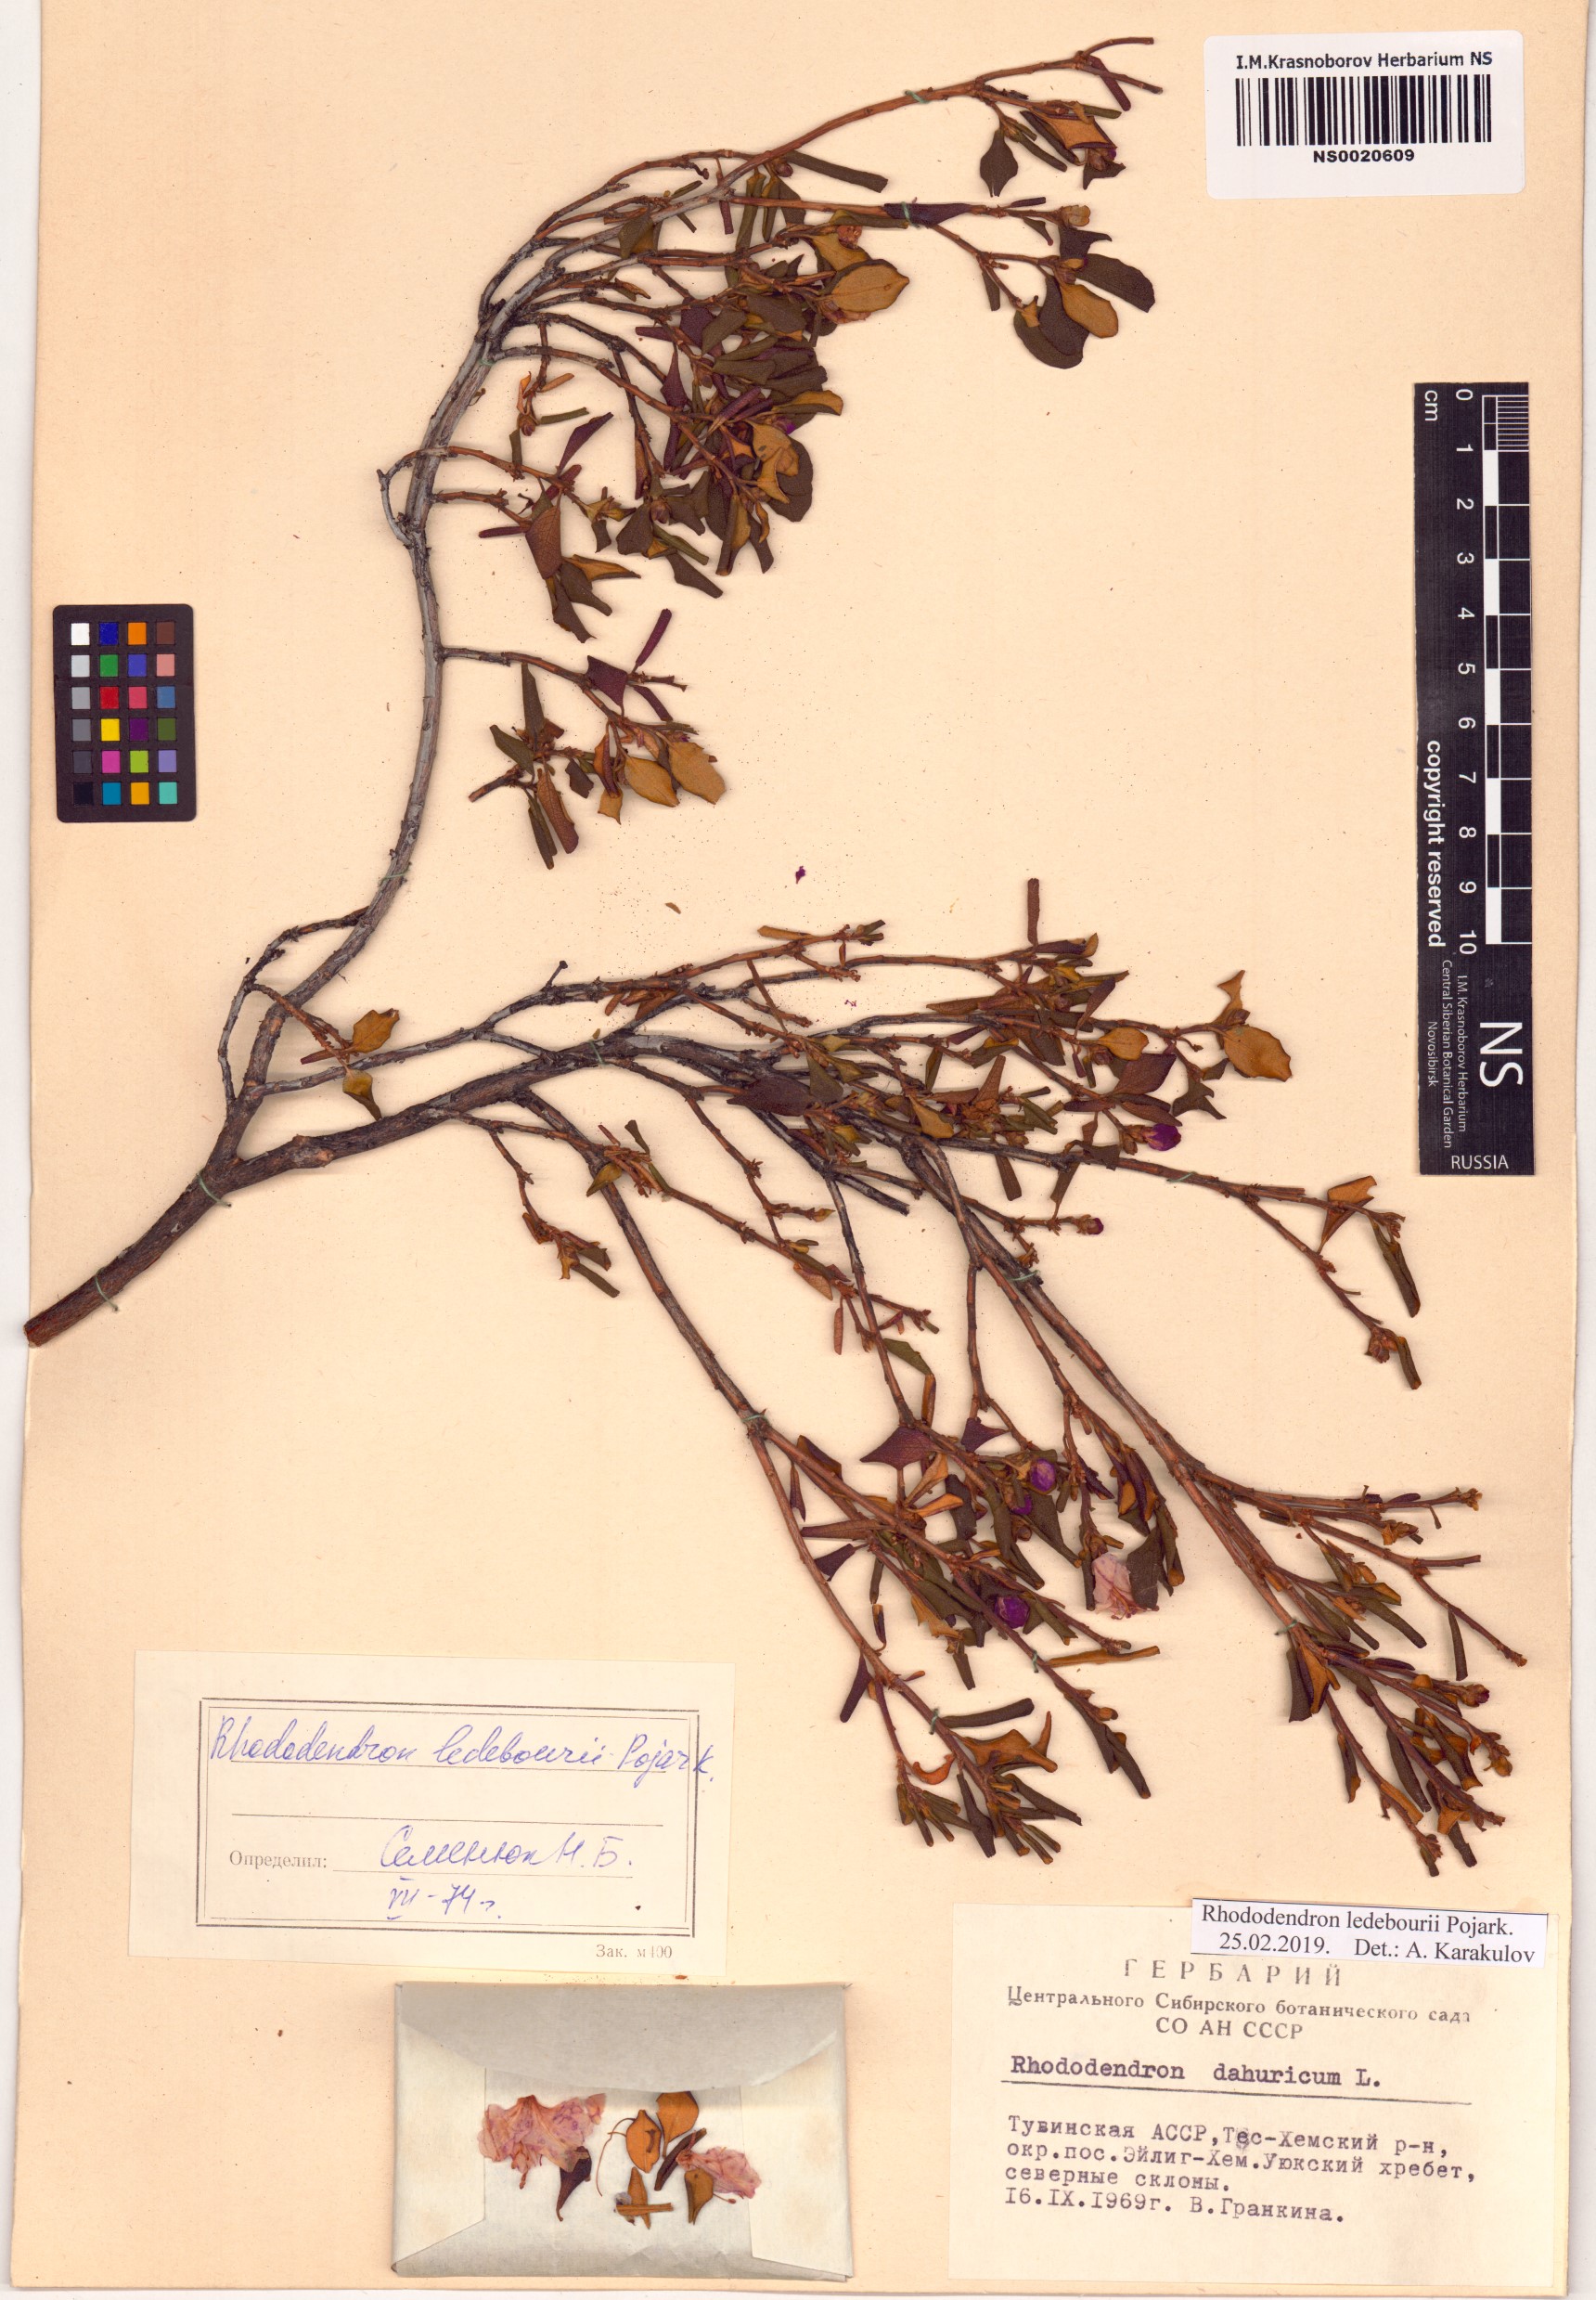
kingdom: Plantae
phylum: Tracheophyta
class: Magnoliopsida
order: Ericales
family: Ericaceae
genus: Rhododendron
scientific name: Rhododendron dauricum
